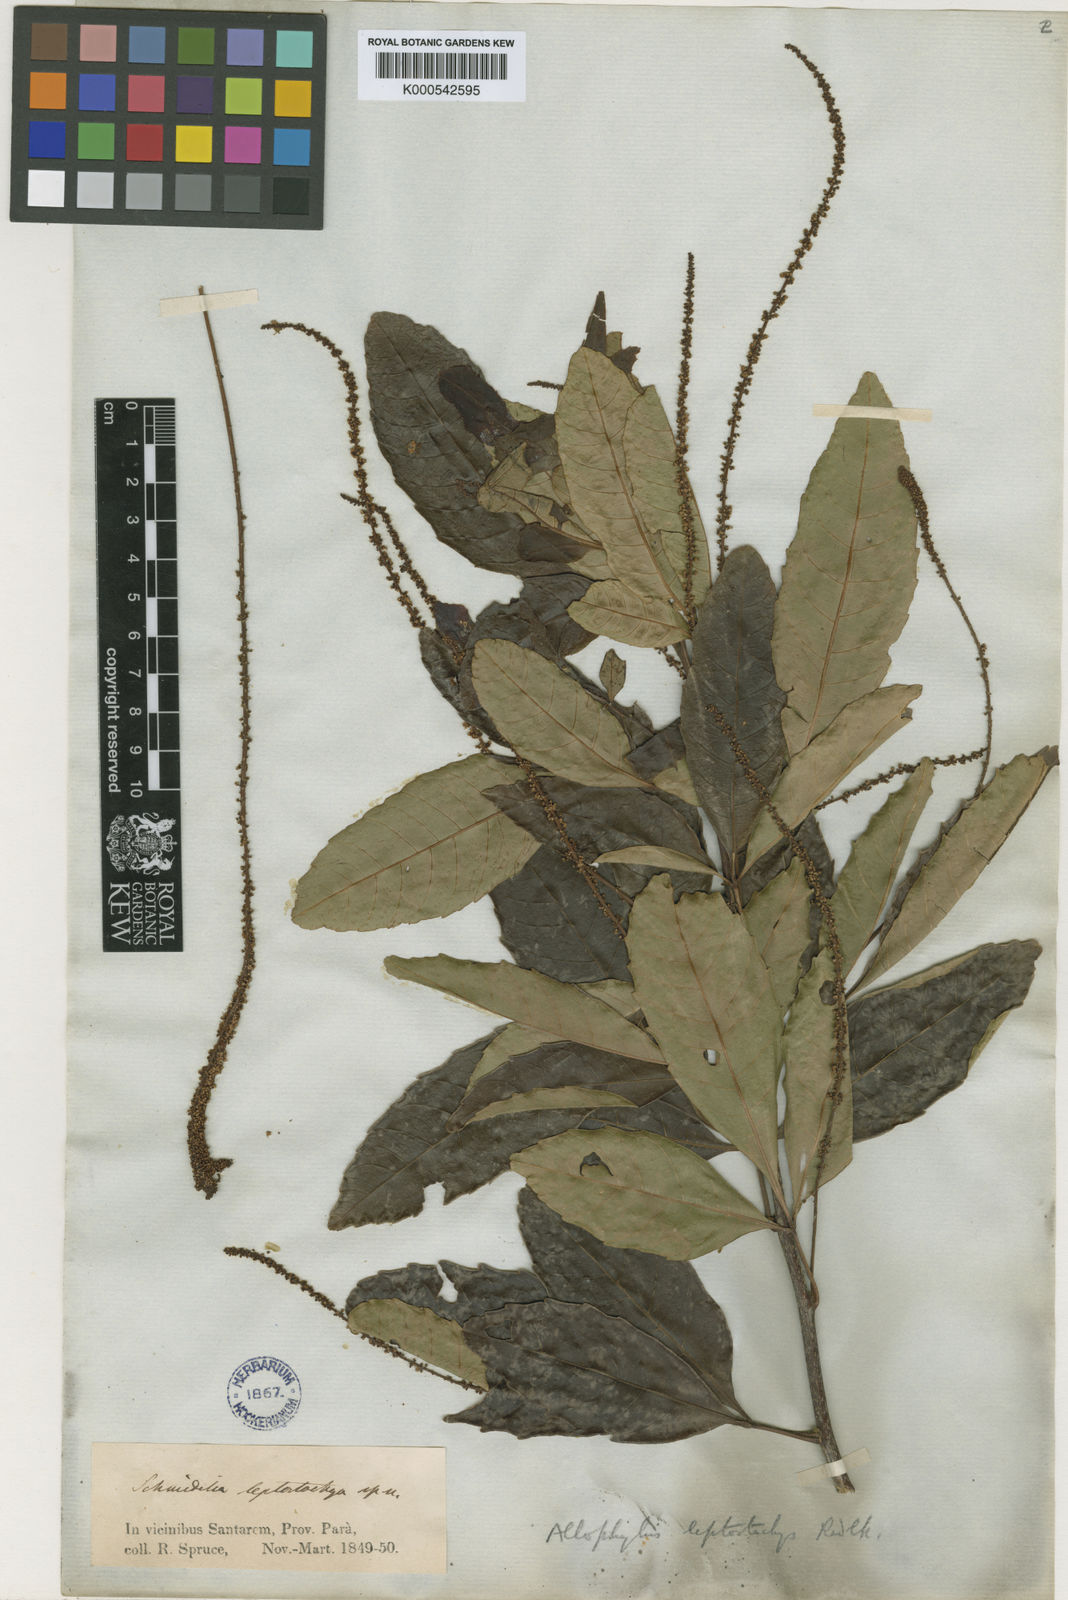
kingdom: Plantae
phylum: Tracheophyta
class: Magnoliopsida
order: Sapindales
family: Sapindaceae
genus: Allophylus
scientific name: Allophylus leptostachys
